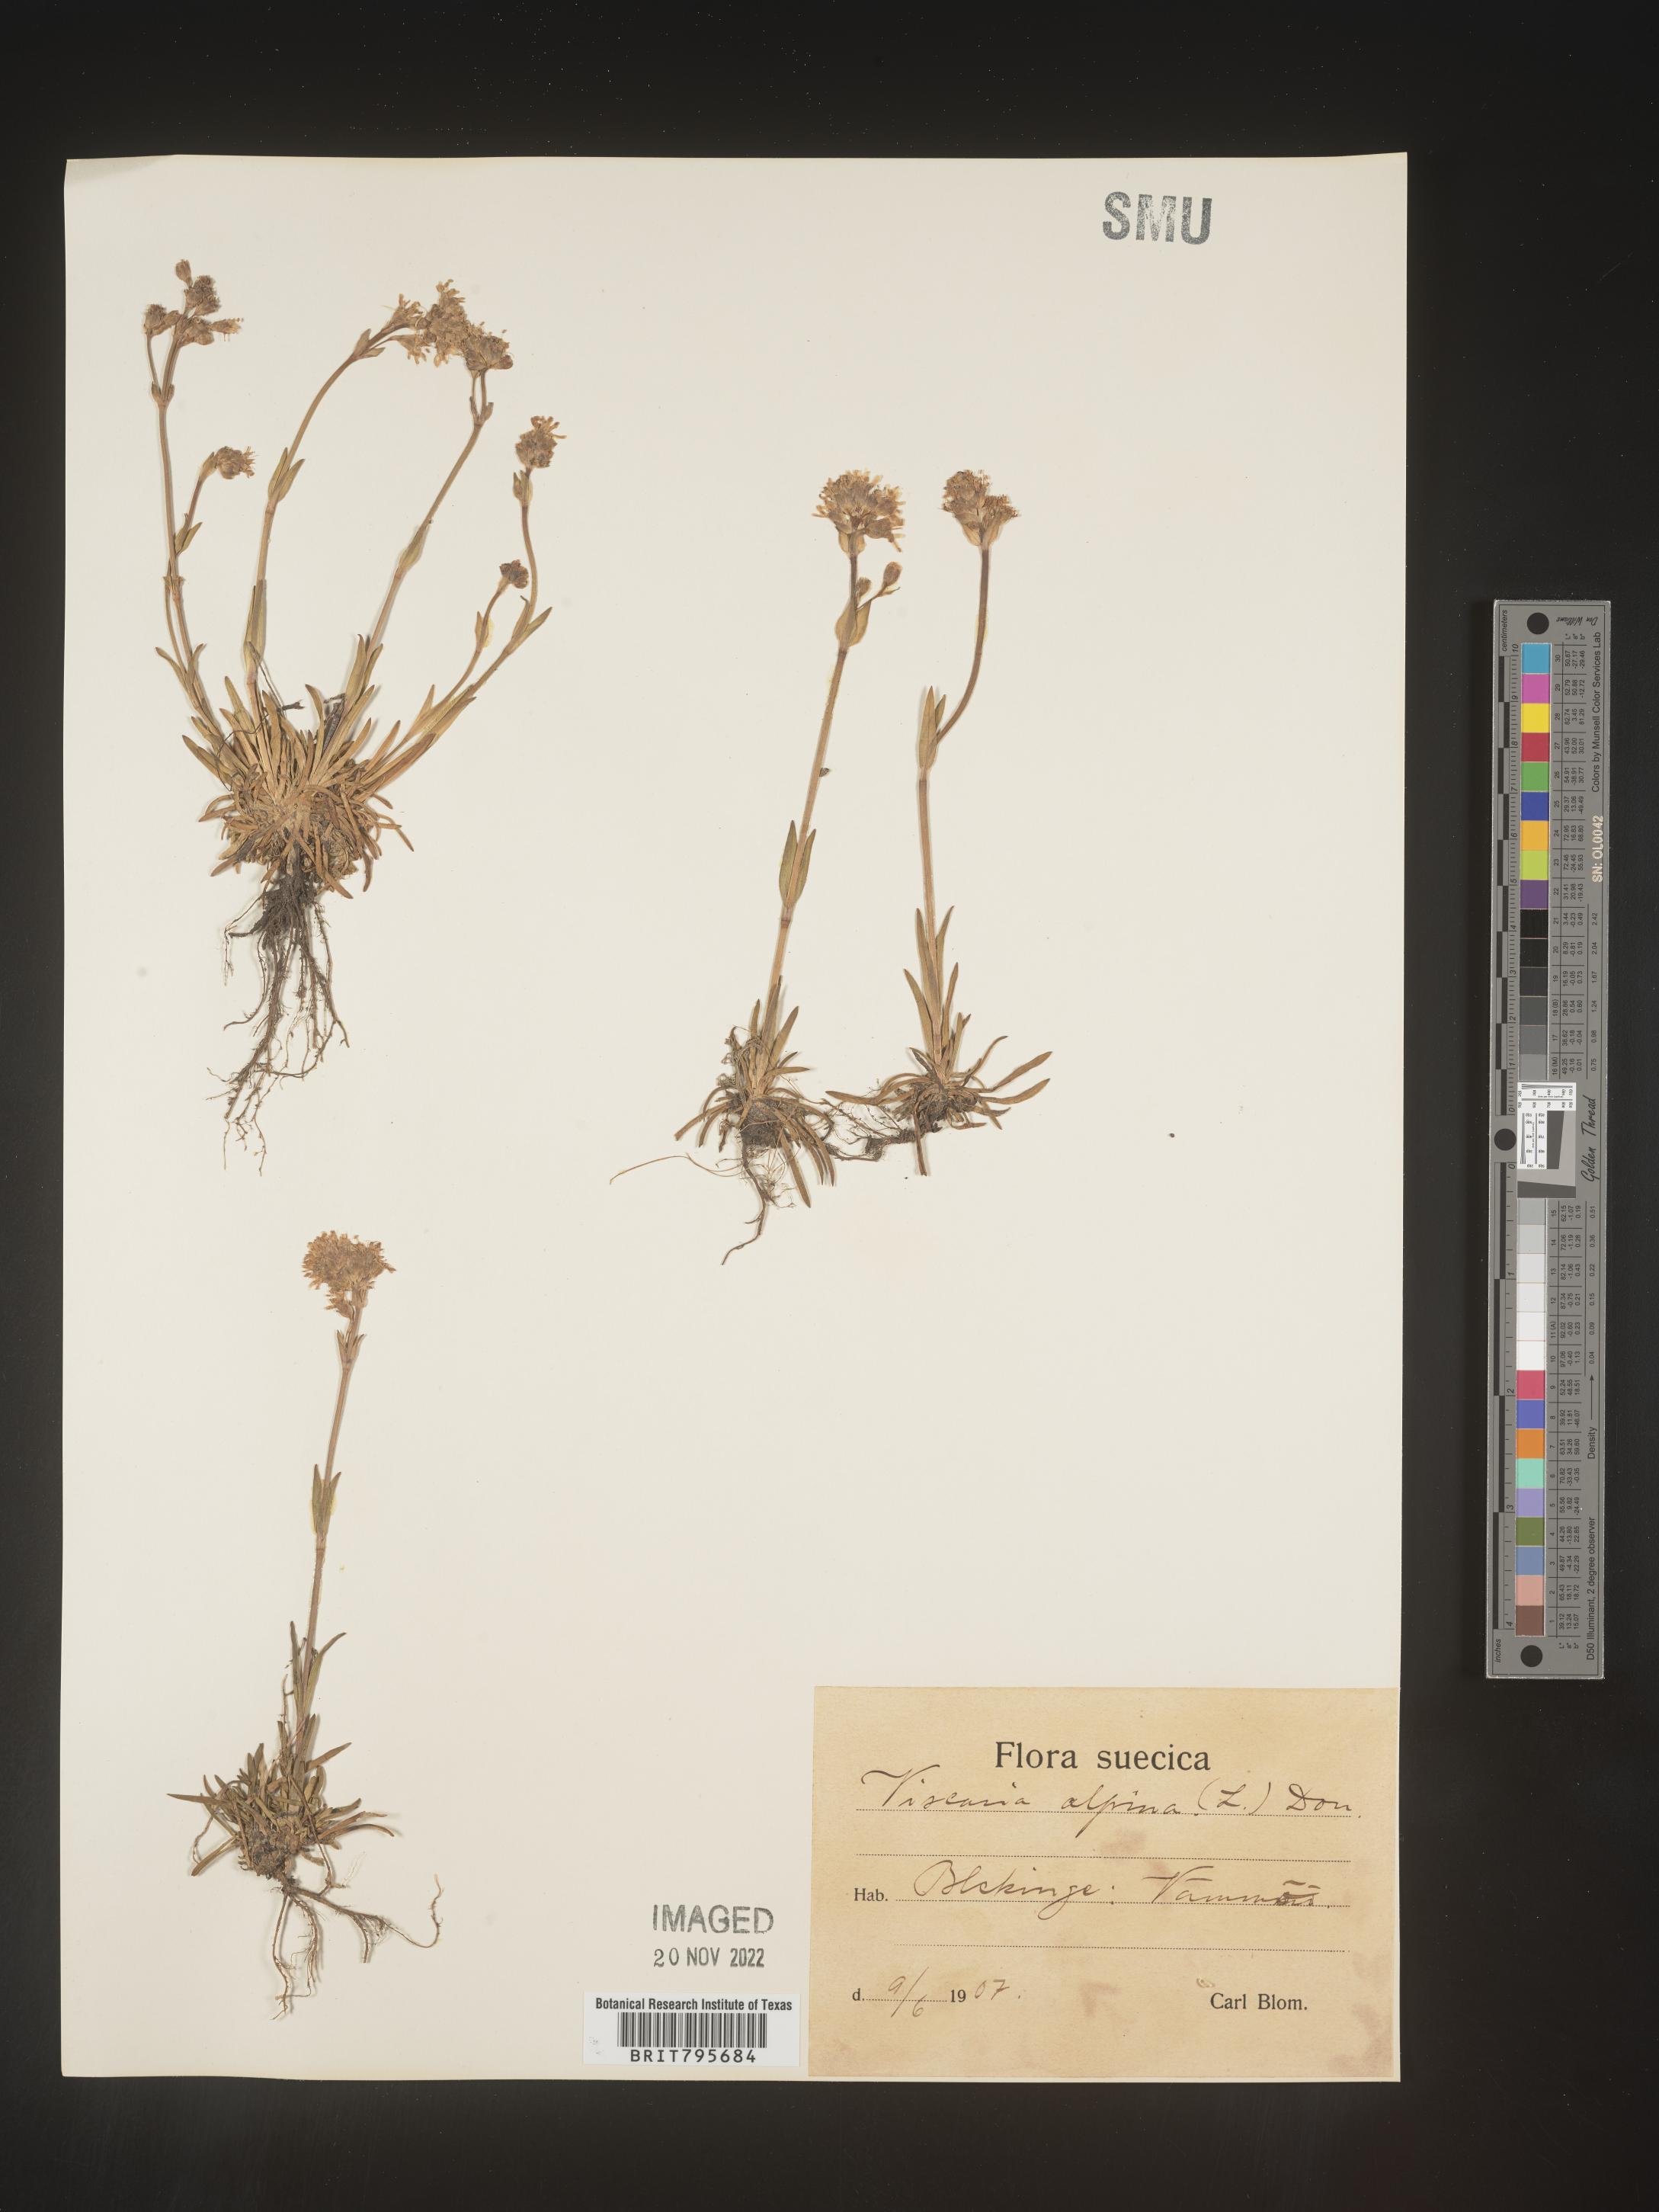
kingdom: Plantae
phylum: Tracheophyta
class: Magnoliopsida
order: Caryophyllales
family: Caryophyllaceae
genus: Viscaria
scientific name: Viscaria
